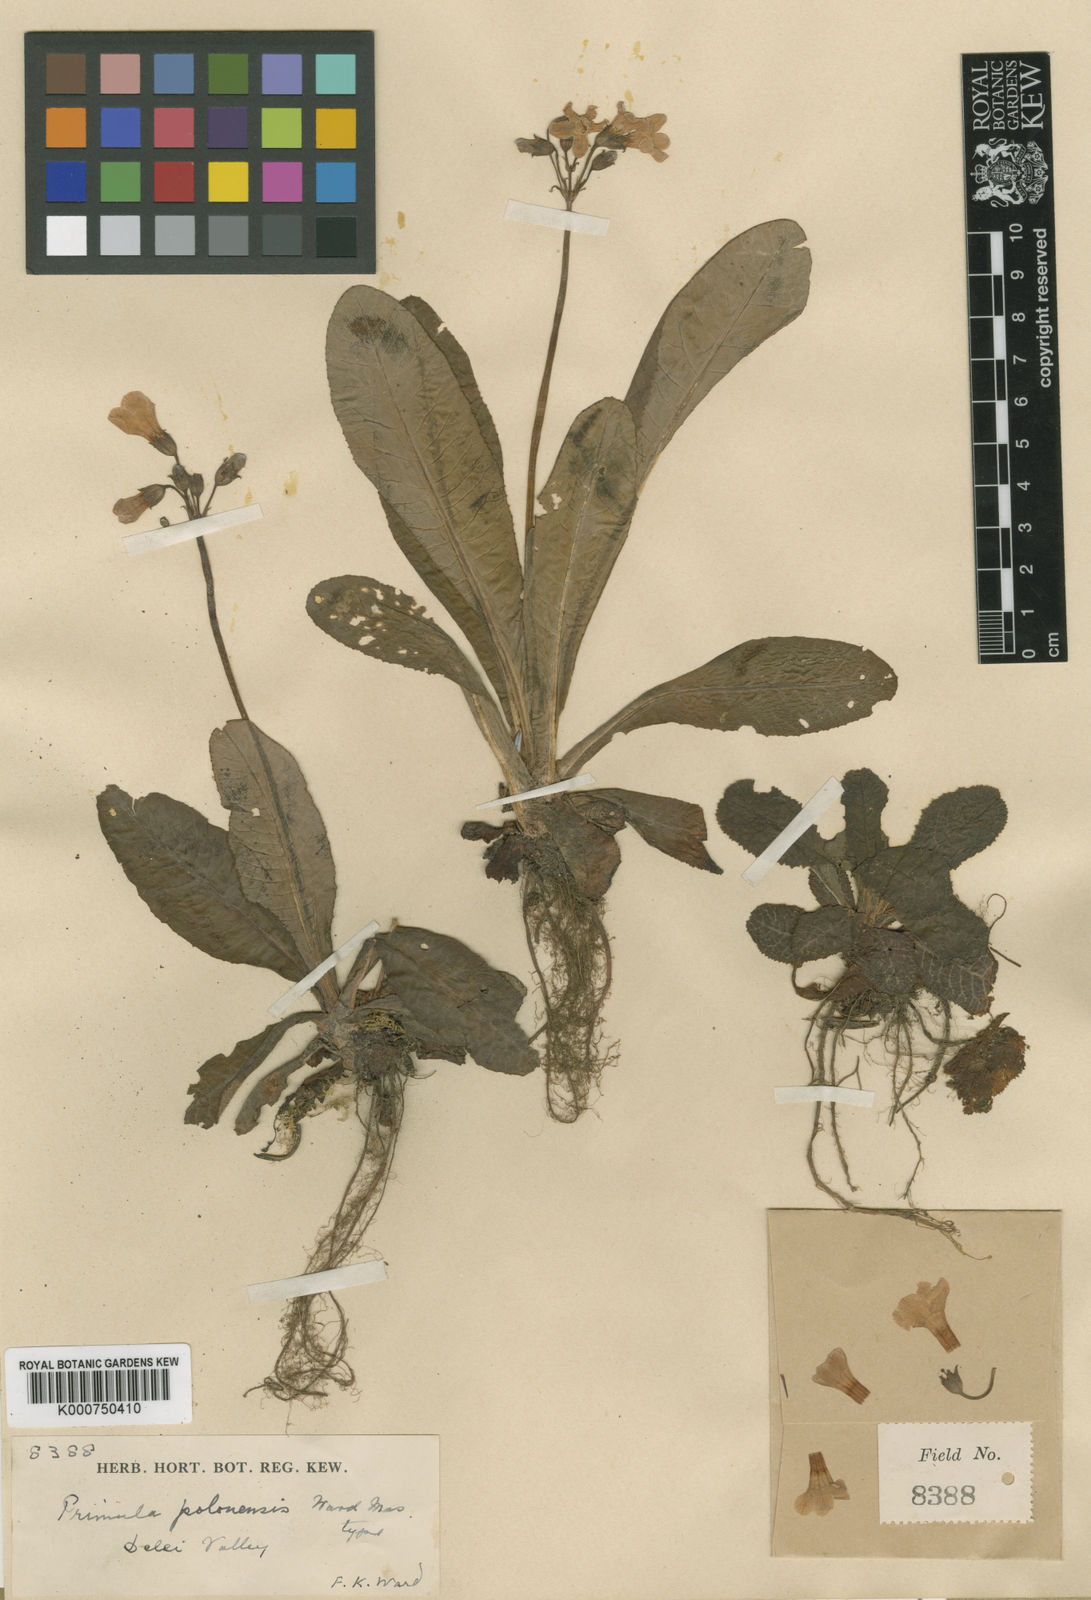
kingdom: Plantae
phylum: Tracheophyta
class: Magnoliopsida
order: Ericales
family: Primulaceae
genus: Primula
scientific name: Primula polonensis
